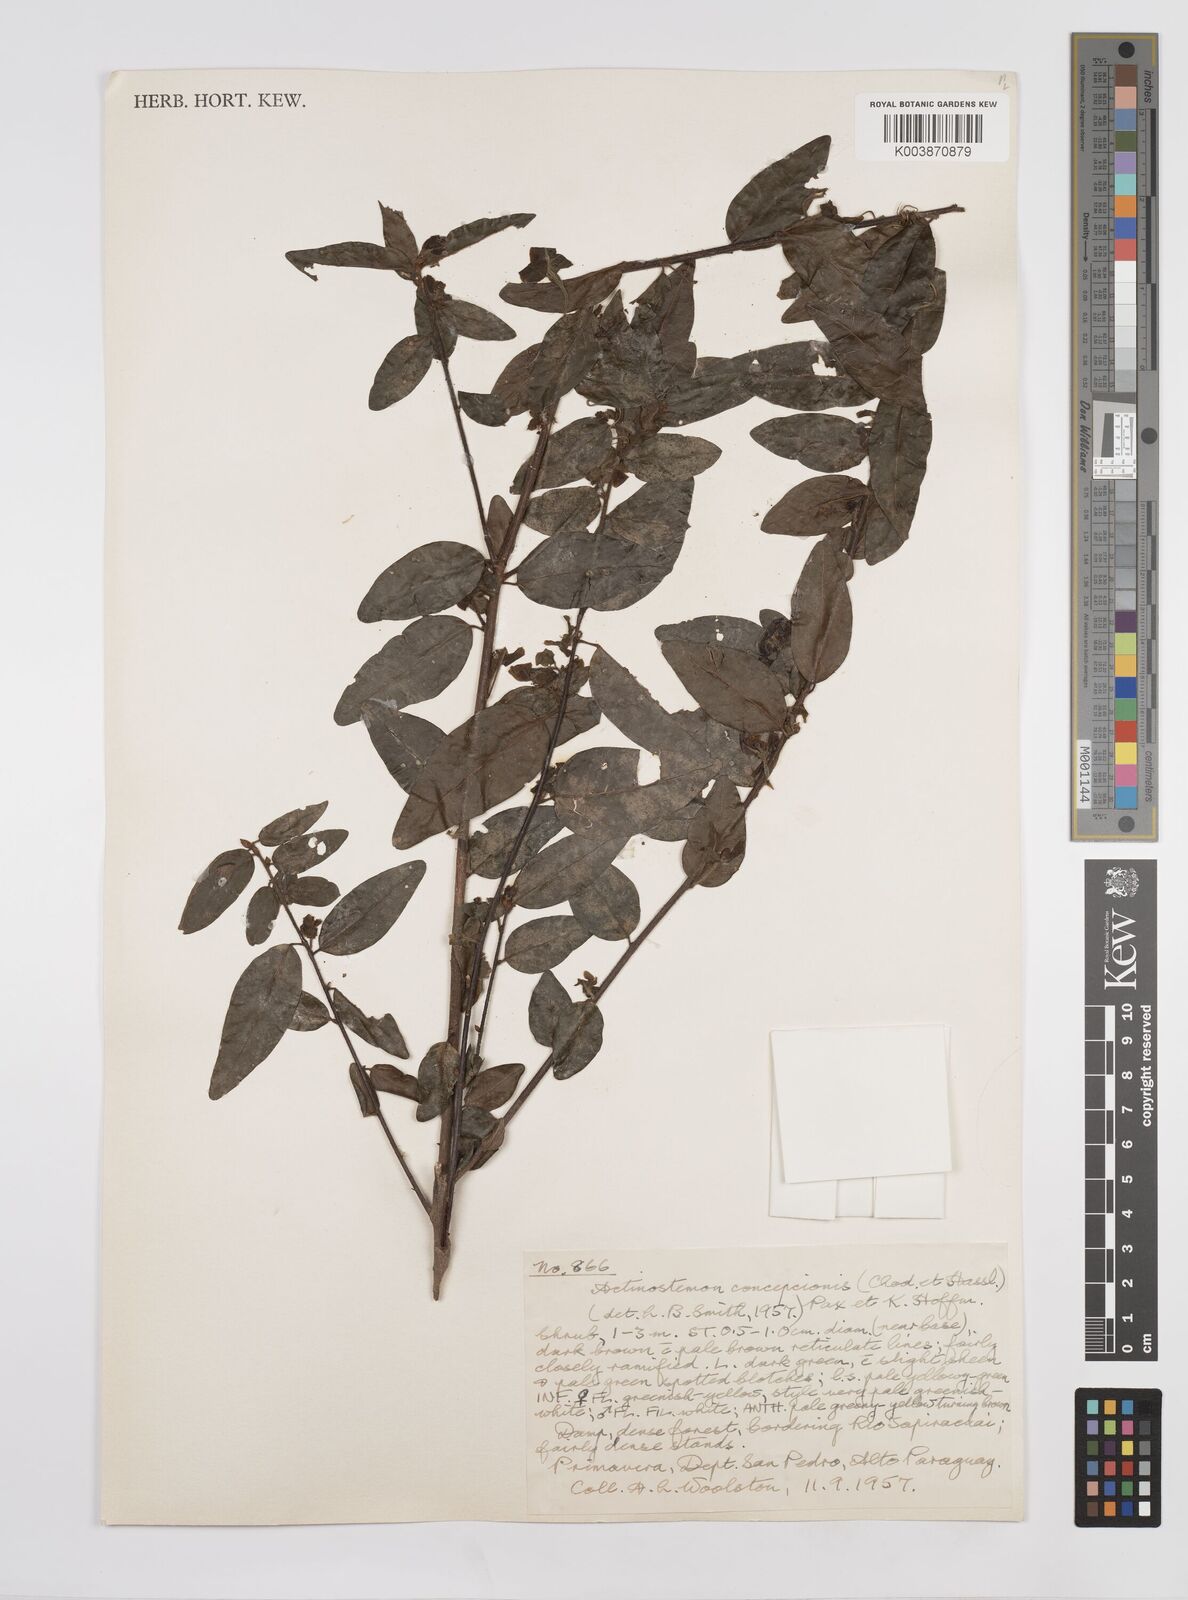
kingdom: Plantae
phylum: Tracheophyta
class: Magnoliopsida
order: Malpighiales
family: Euphorbiaceae
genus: Actinostemon
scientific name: Actinostemon concepcionis
